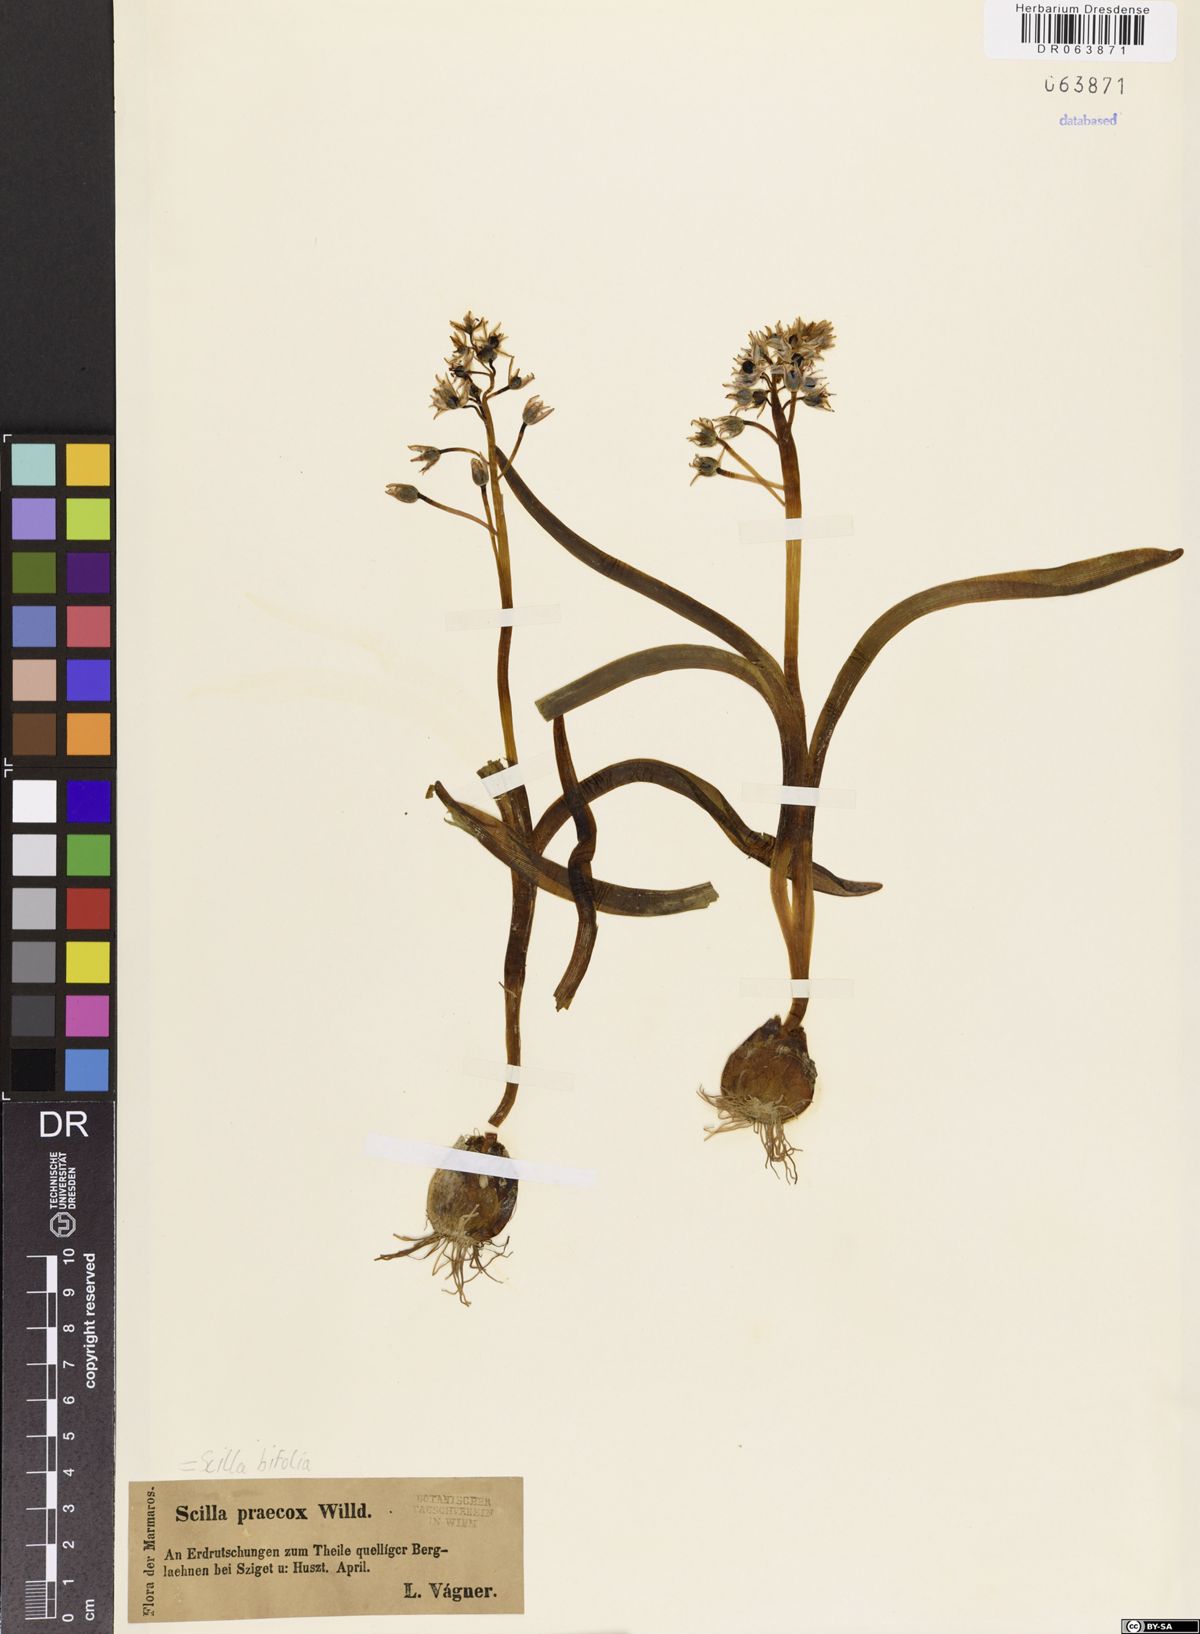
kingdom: Plantae
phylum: Tracheophyta
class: Liliopsida
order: Asparagales
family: Asparagaceae
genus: Scilla
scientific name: Scilla bifolia
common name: Alpine squill
